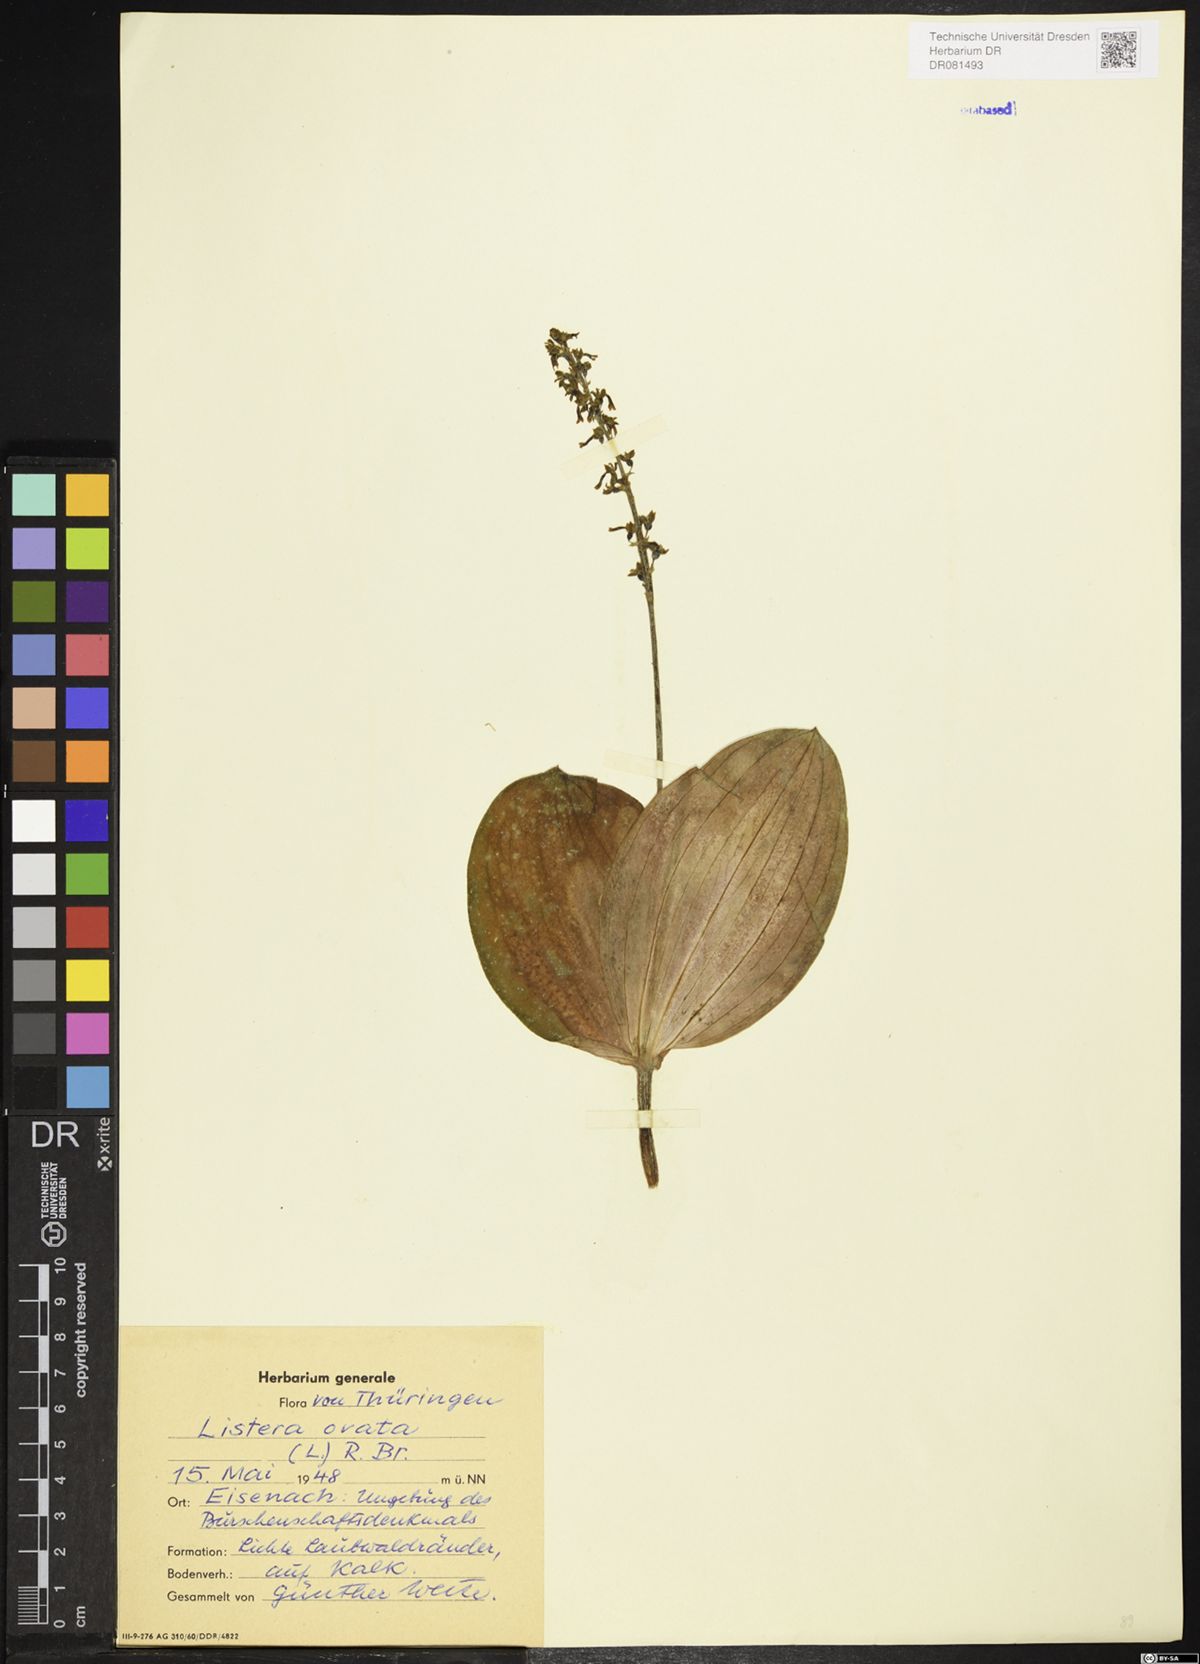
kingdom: Plantae
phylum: Tracheophyta
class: Liliopsida
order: Asparagales
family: Orchidaceae
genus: Neottia
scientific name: Neottia ovata
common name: Common twayblade
